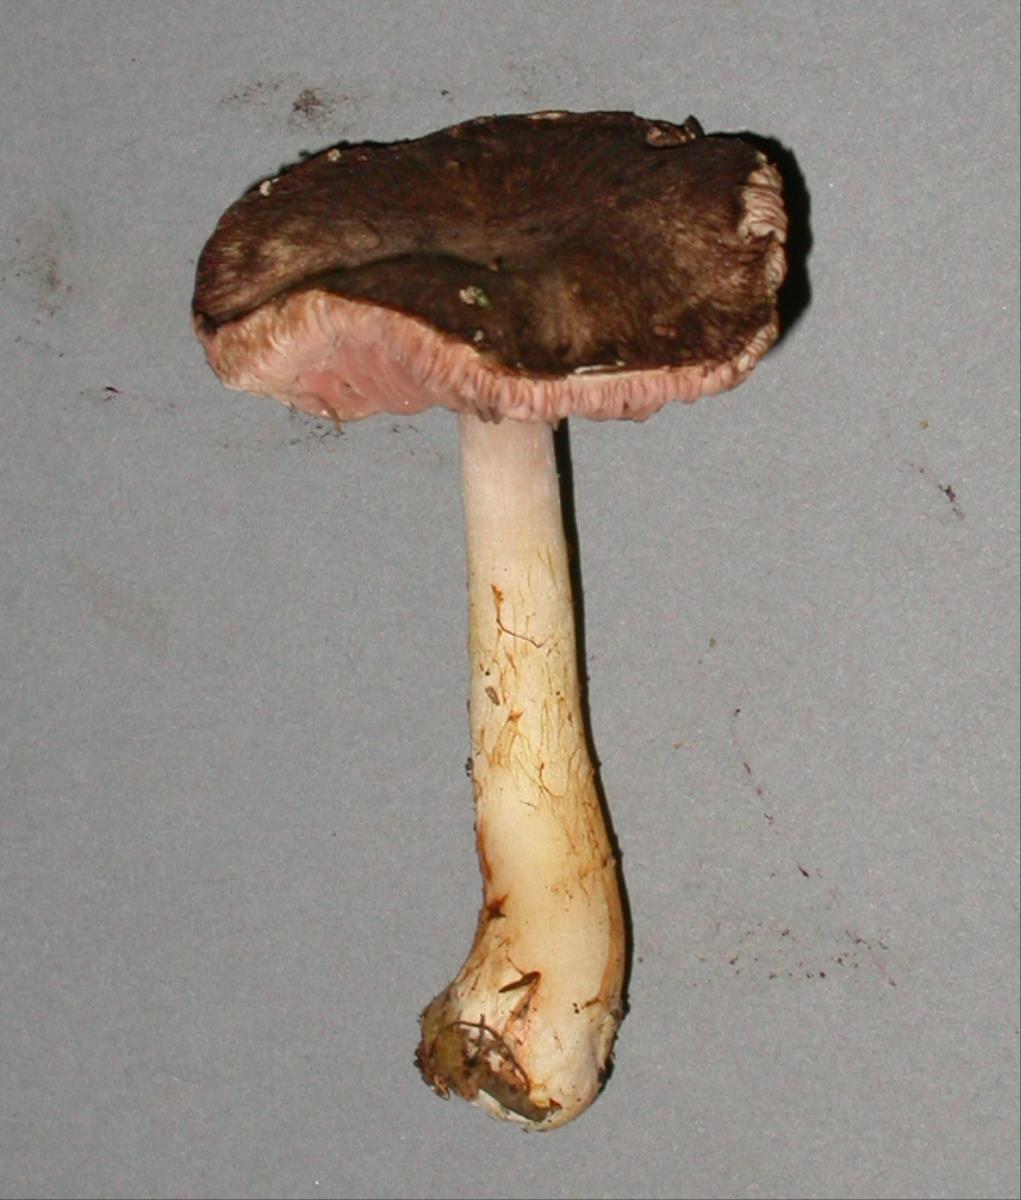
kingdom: Fungi
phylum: Basidiomycota
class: Agaricomycetes
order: Agaricales
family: Agaricaceae
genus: Agaricus
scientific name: Agaricus viridopurpurascens
